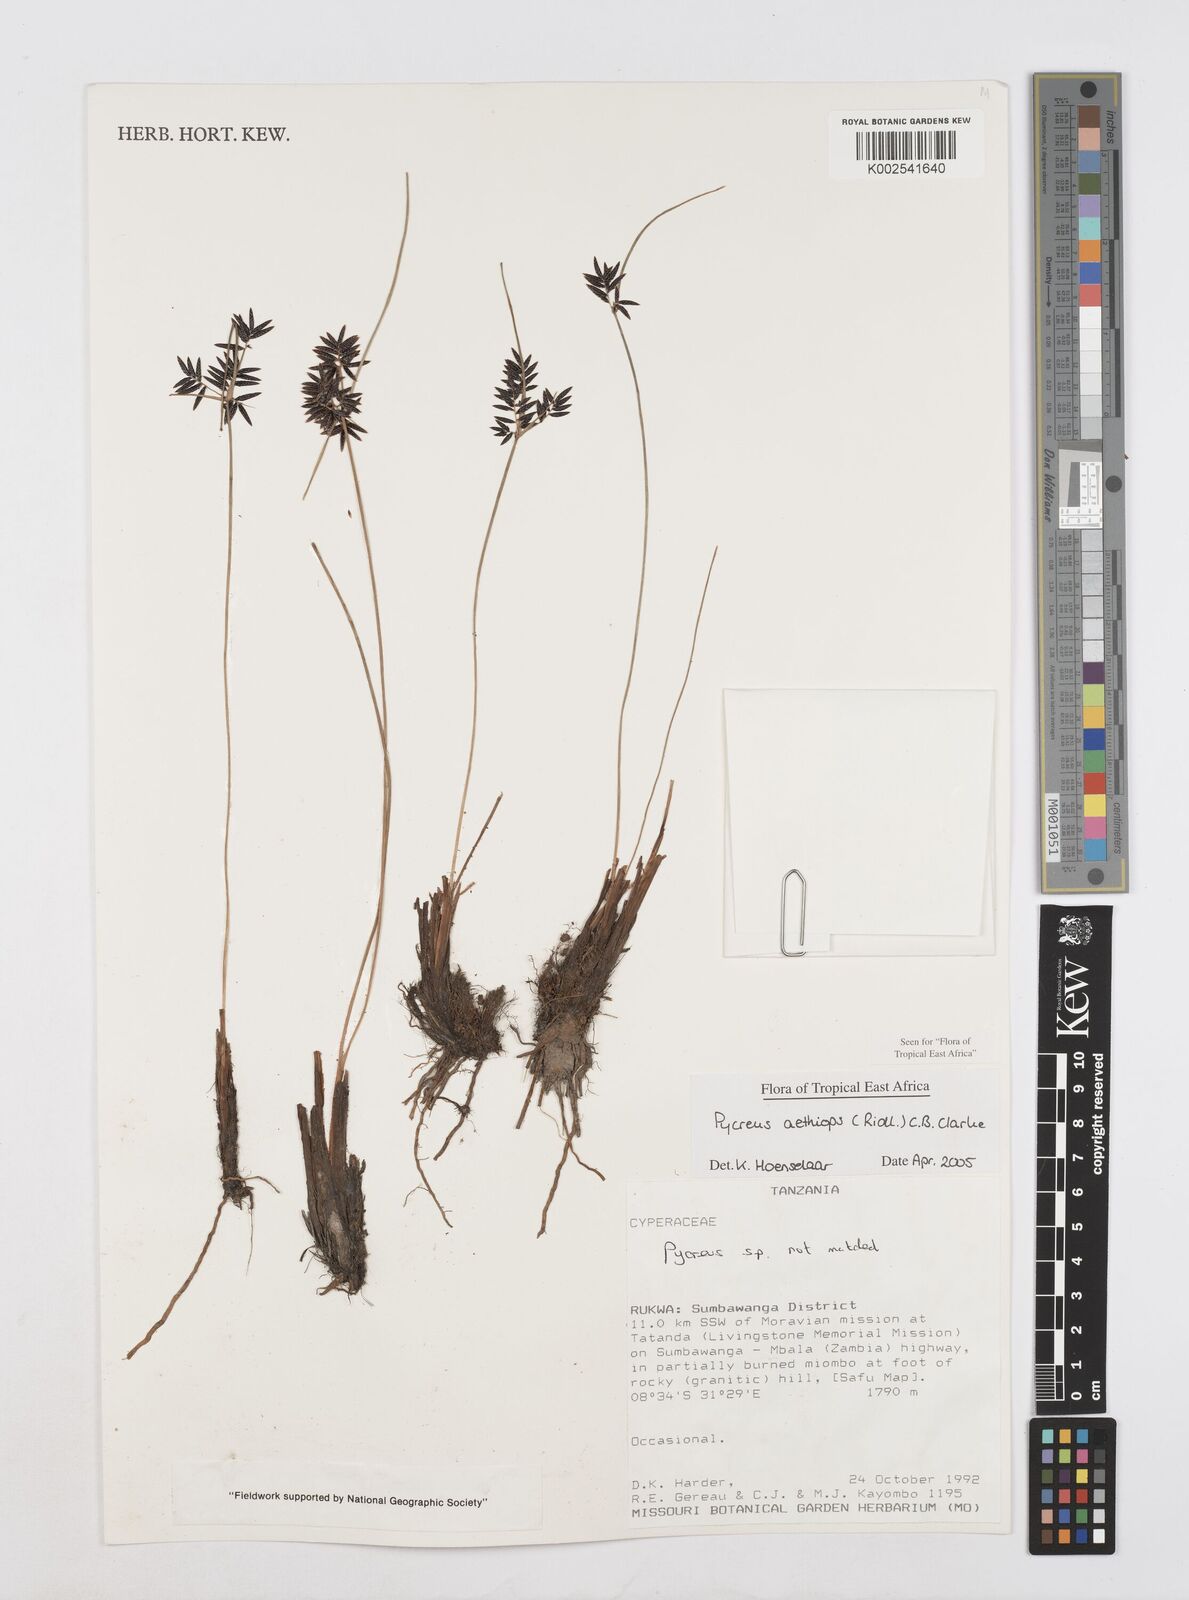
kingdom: Plantae
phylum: Tracheophyta
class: Liliopsida
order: Poales
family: Cyperaceae
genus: Cyperus
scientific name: Cyperus aethiops
